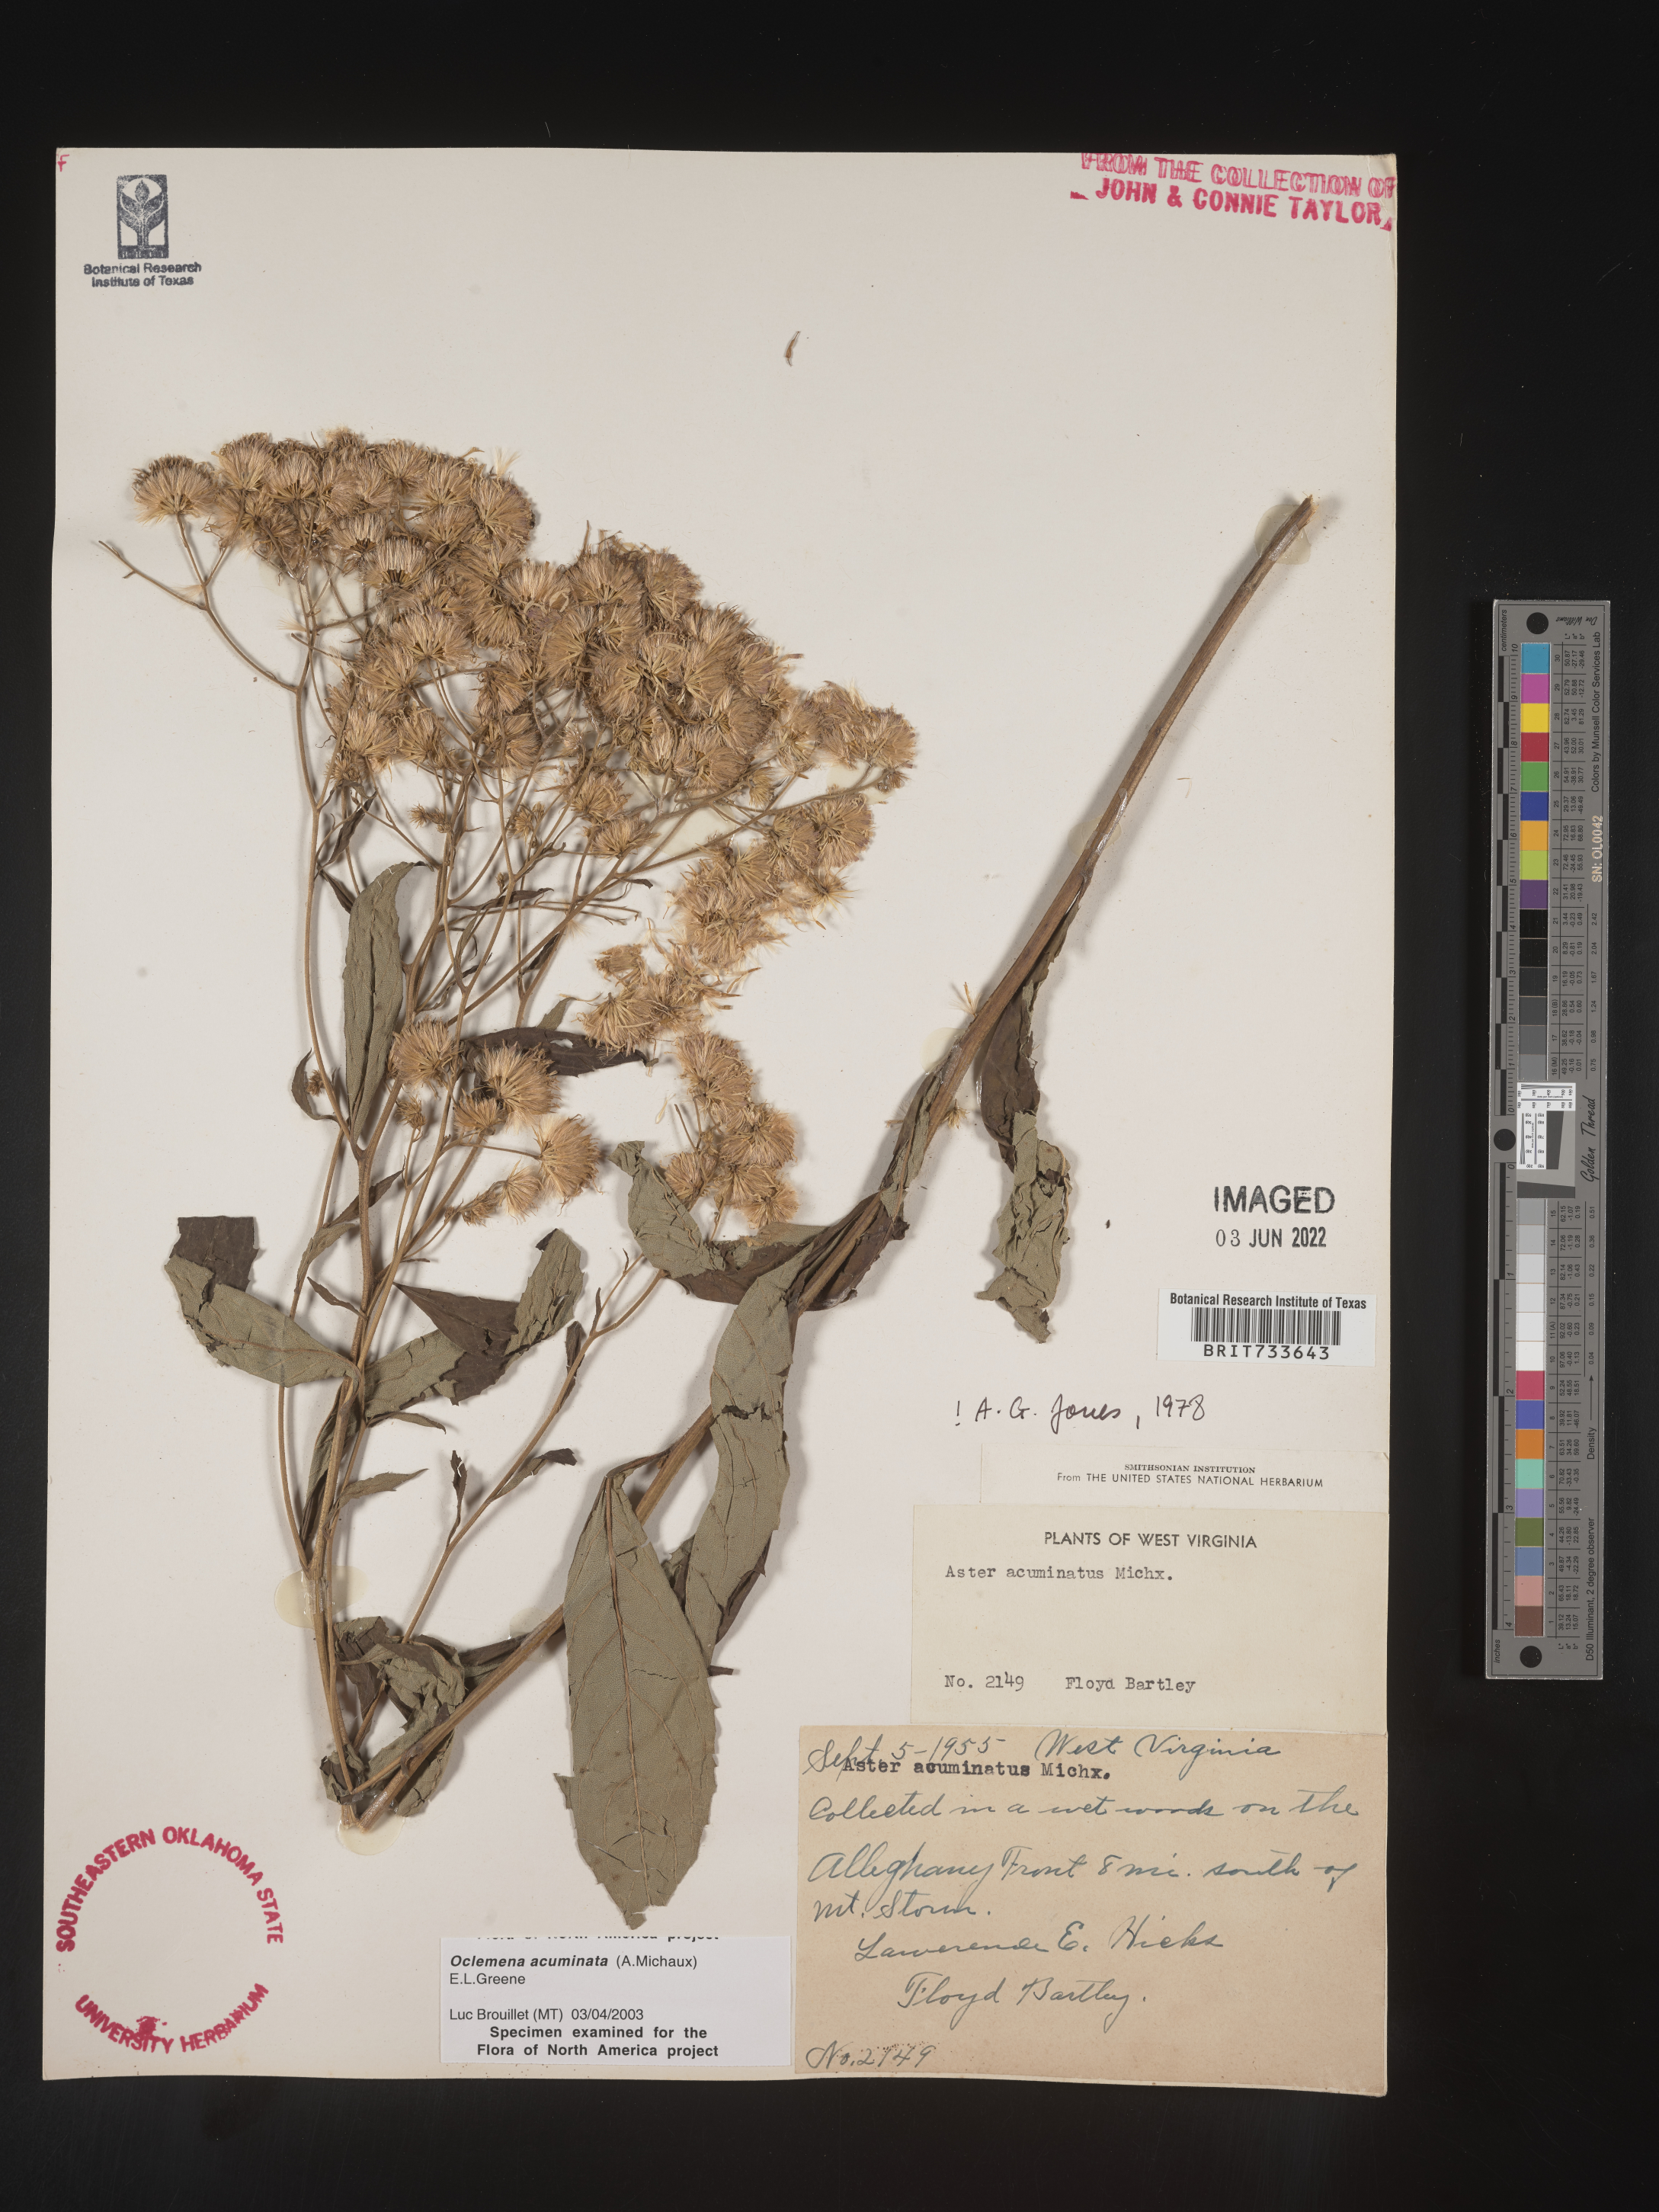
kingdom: Plantae
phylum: Tracheophyta
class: Magnoliopsida
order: Asterales
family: Asteraceae
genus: Oclemena
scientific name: Oclemena acuminata
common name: Mountain aster
